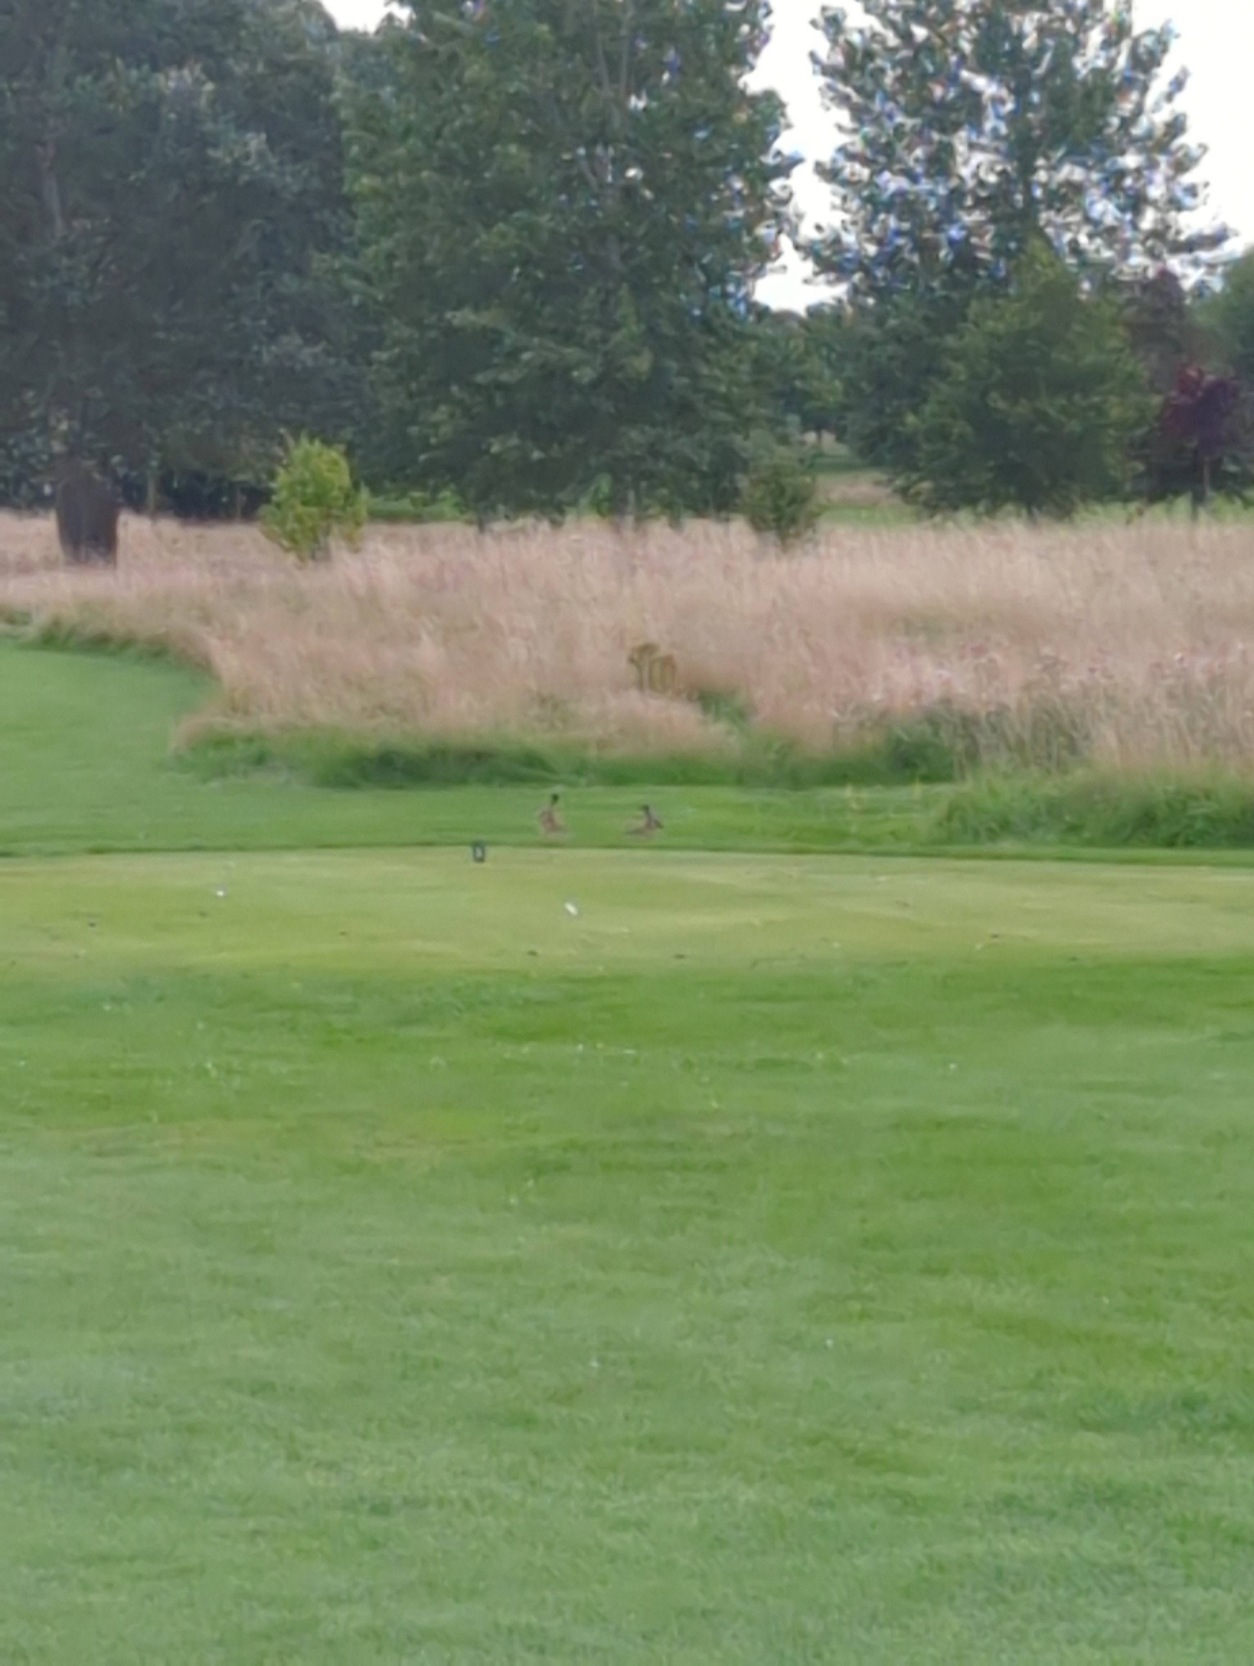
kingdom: Animalia
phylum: Chordata
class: Mammalia
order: Lagomorpha
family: Leporidae
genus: Lepus
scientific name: Lepus europaeus
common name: Hare
